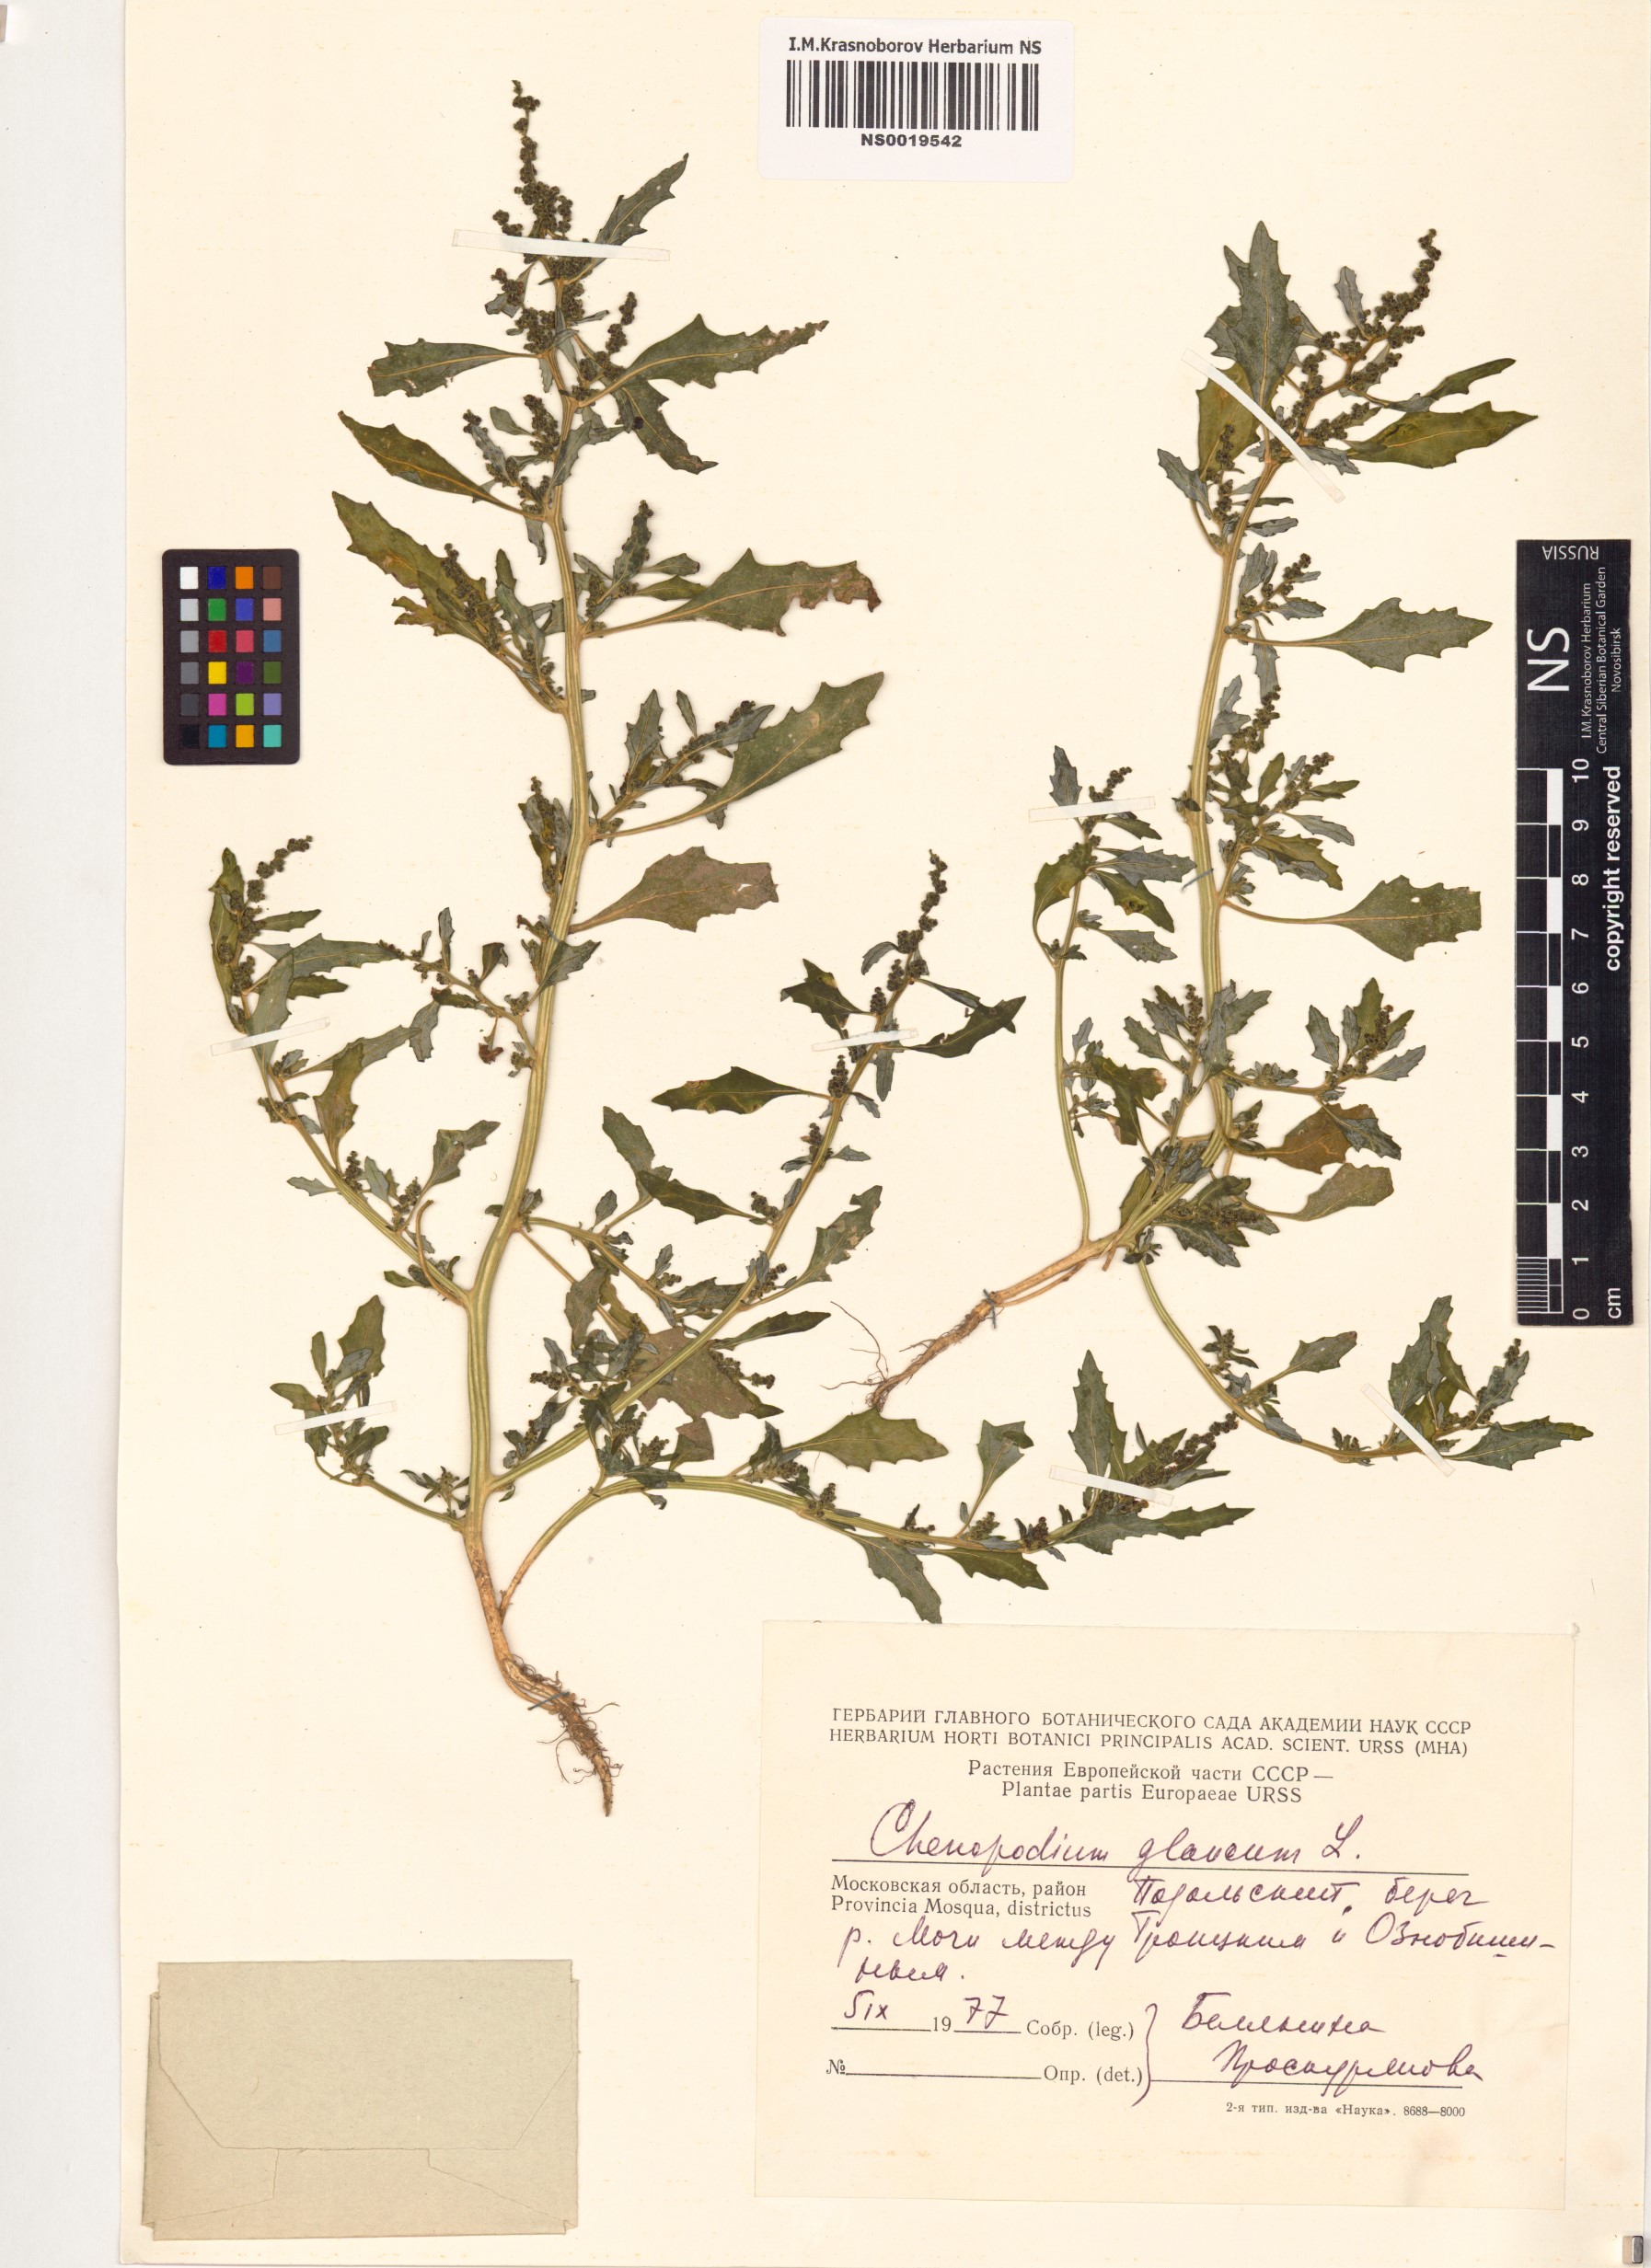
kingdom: Plantae
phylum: Tracheophyta
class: Magnoliopsida
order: Caryophyllales
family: Amaranthaceae
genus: Oxybasis
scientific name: Oxybasis glauca
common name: Glaucous goosefoot
